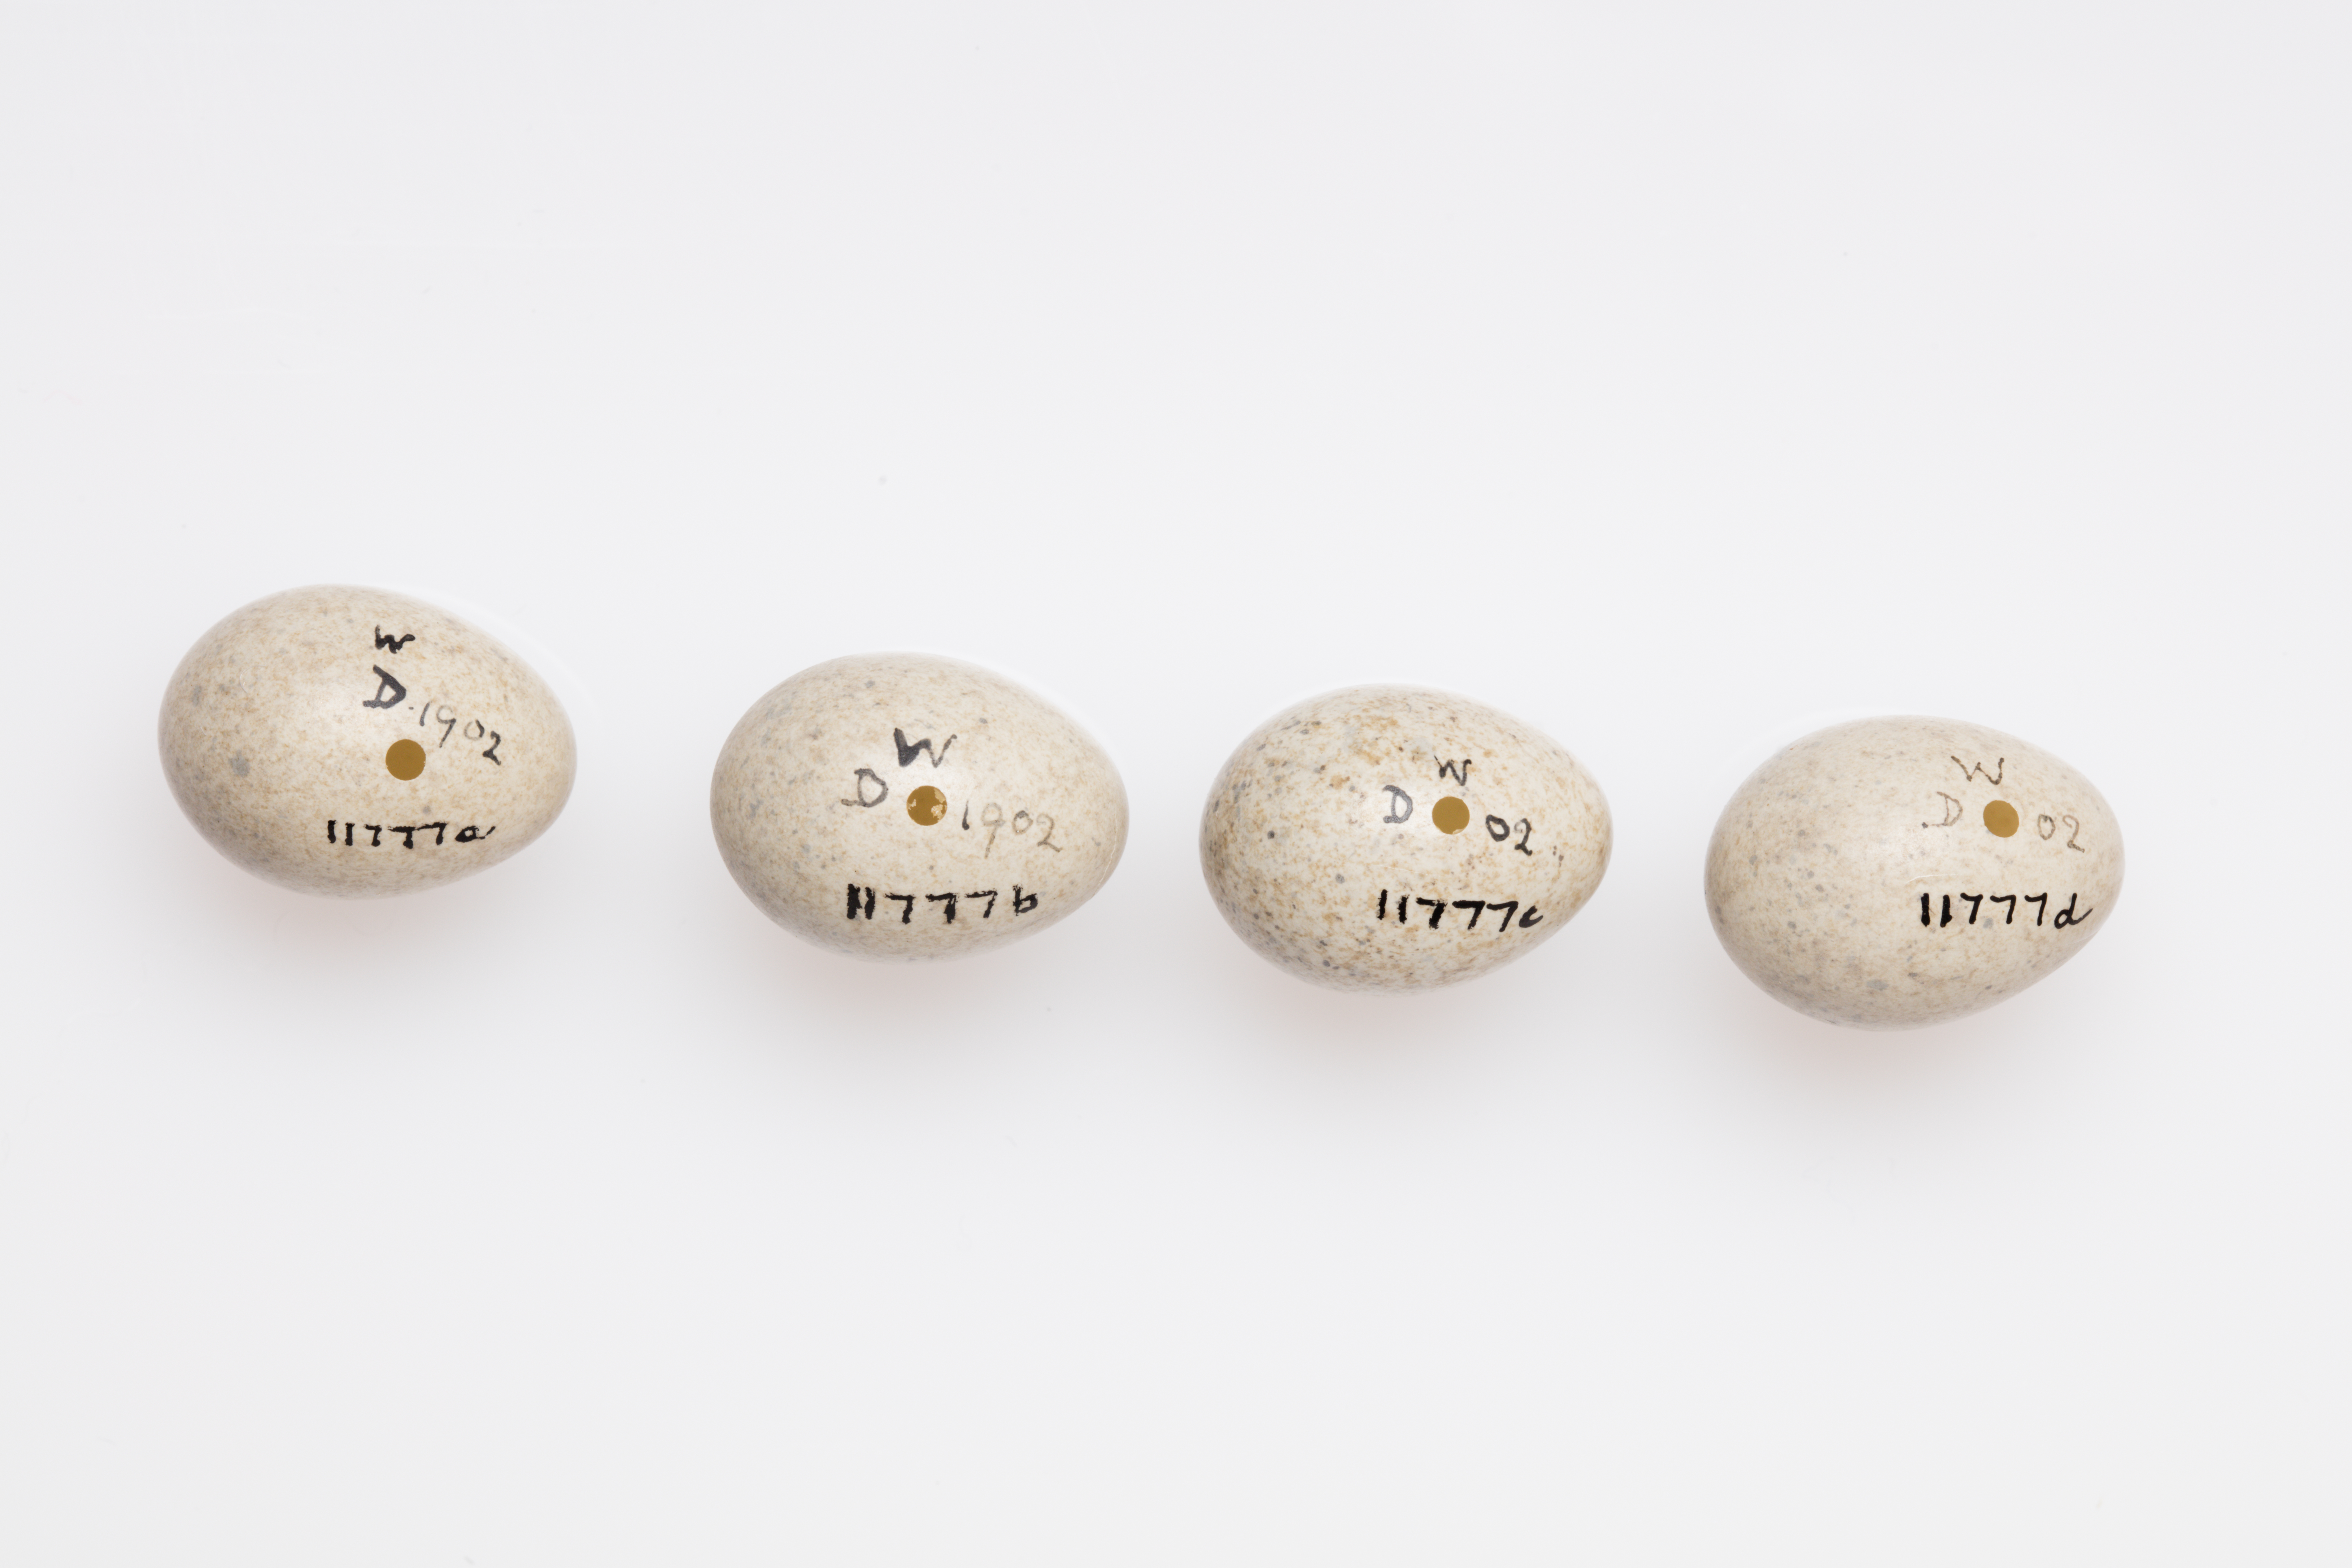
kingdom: Animalia
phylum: Chordata
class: Aves
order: Passeriformes
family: Sylviidae
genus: Sylvia
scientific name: Sylvia communis
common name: Common whitethroat
